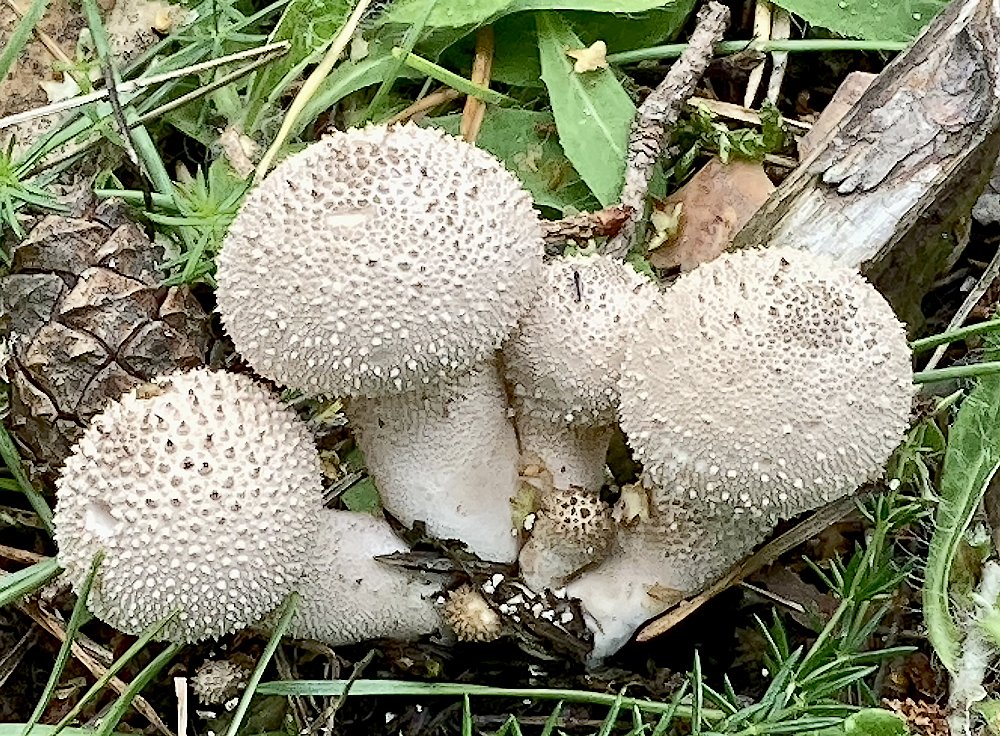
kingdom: Fungi
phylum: Basidiomycota
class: Agaricomycetes
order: Agaricales
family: Lycoperdaceae
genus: Lycoperdon
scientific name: Lycoperdon perlatum
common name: krystal-støvbold
